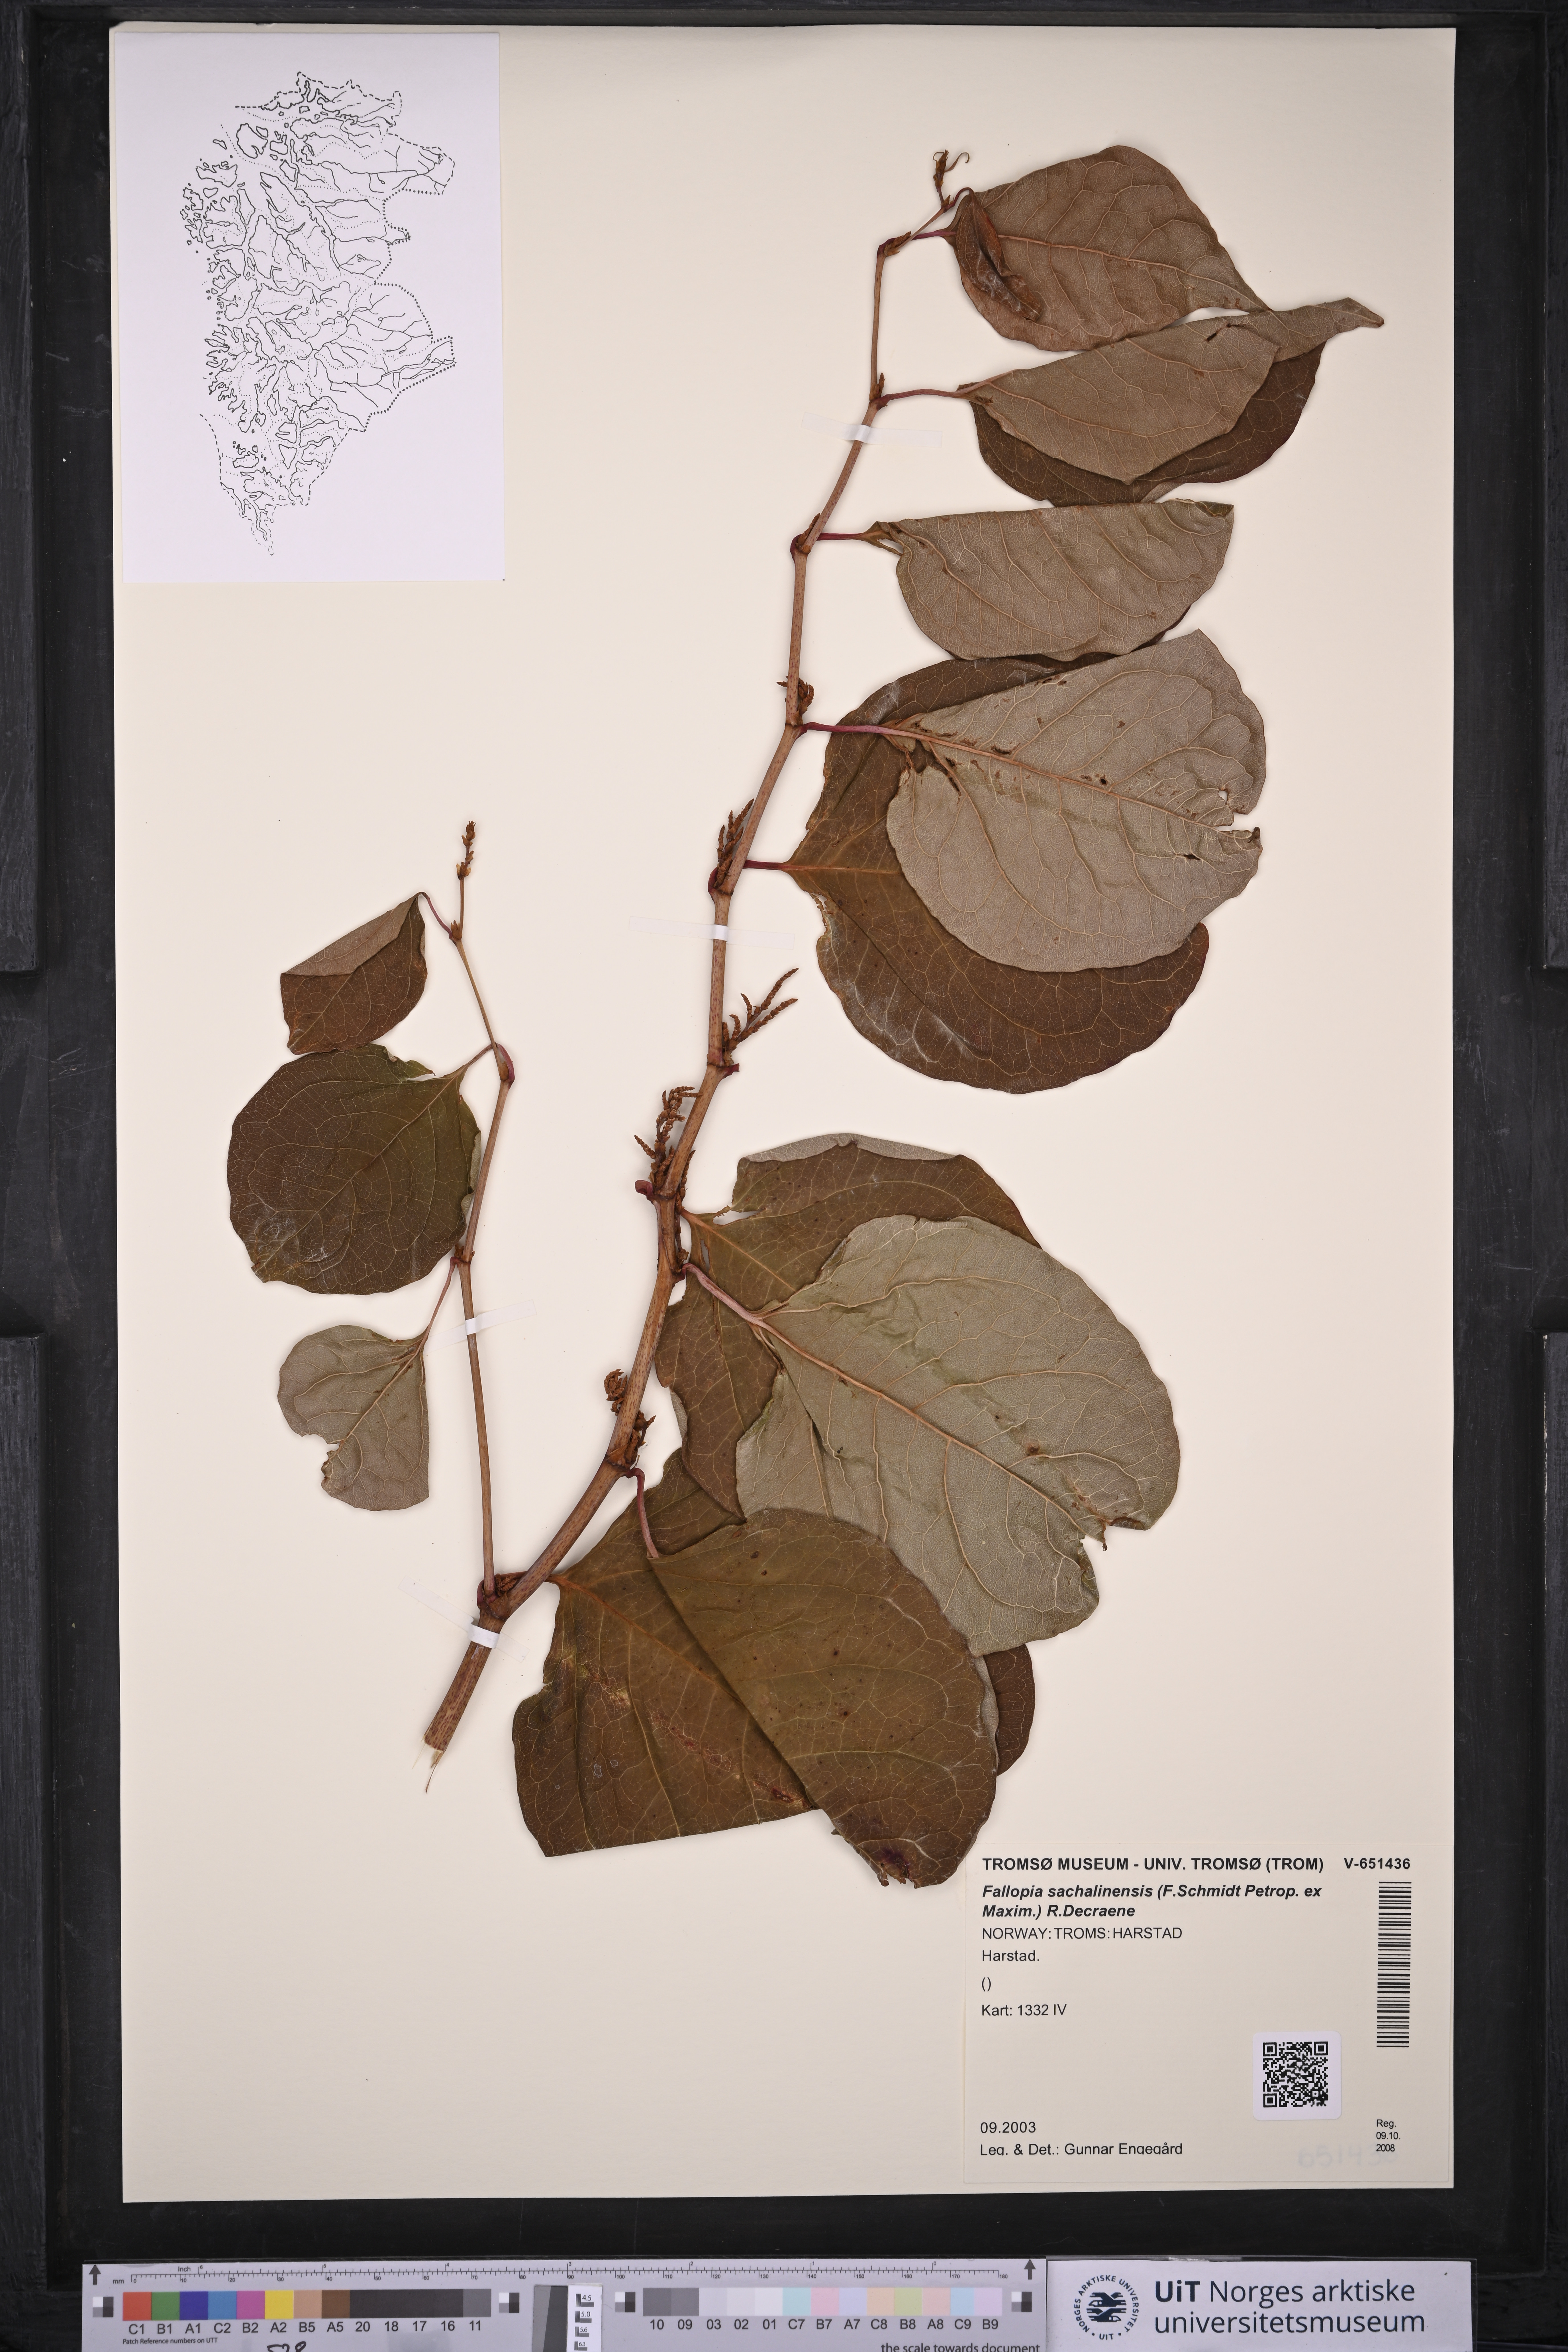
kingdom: Plantae
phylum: Tracheophyta
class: Magnoliopsida
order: Caryophyllales
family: Polygonaceae
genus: Reynoutria
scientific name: Reynoutria sachalinensis
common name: Giant knotweed
